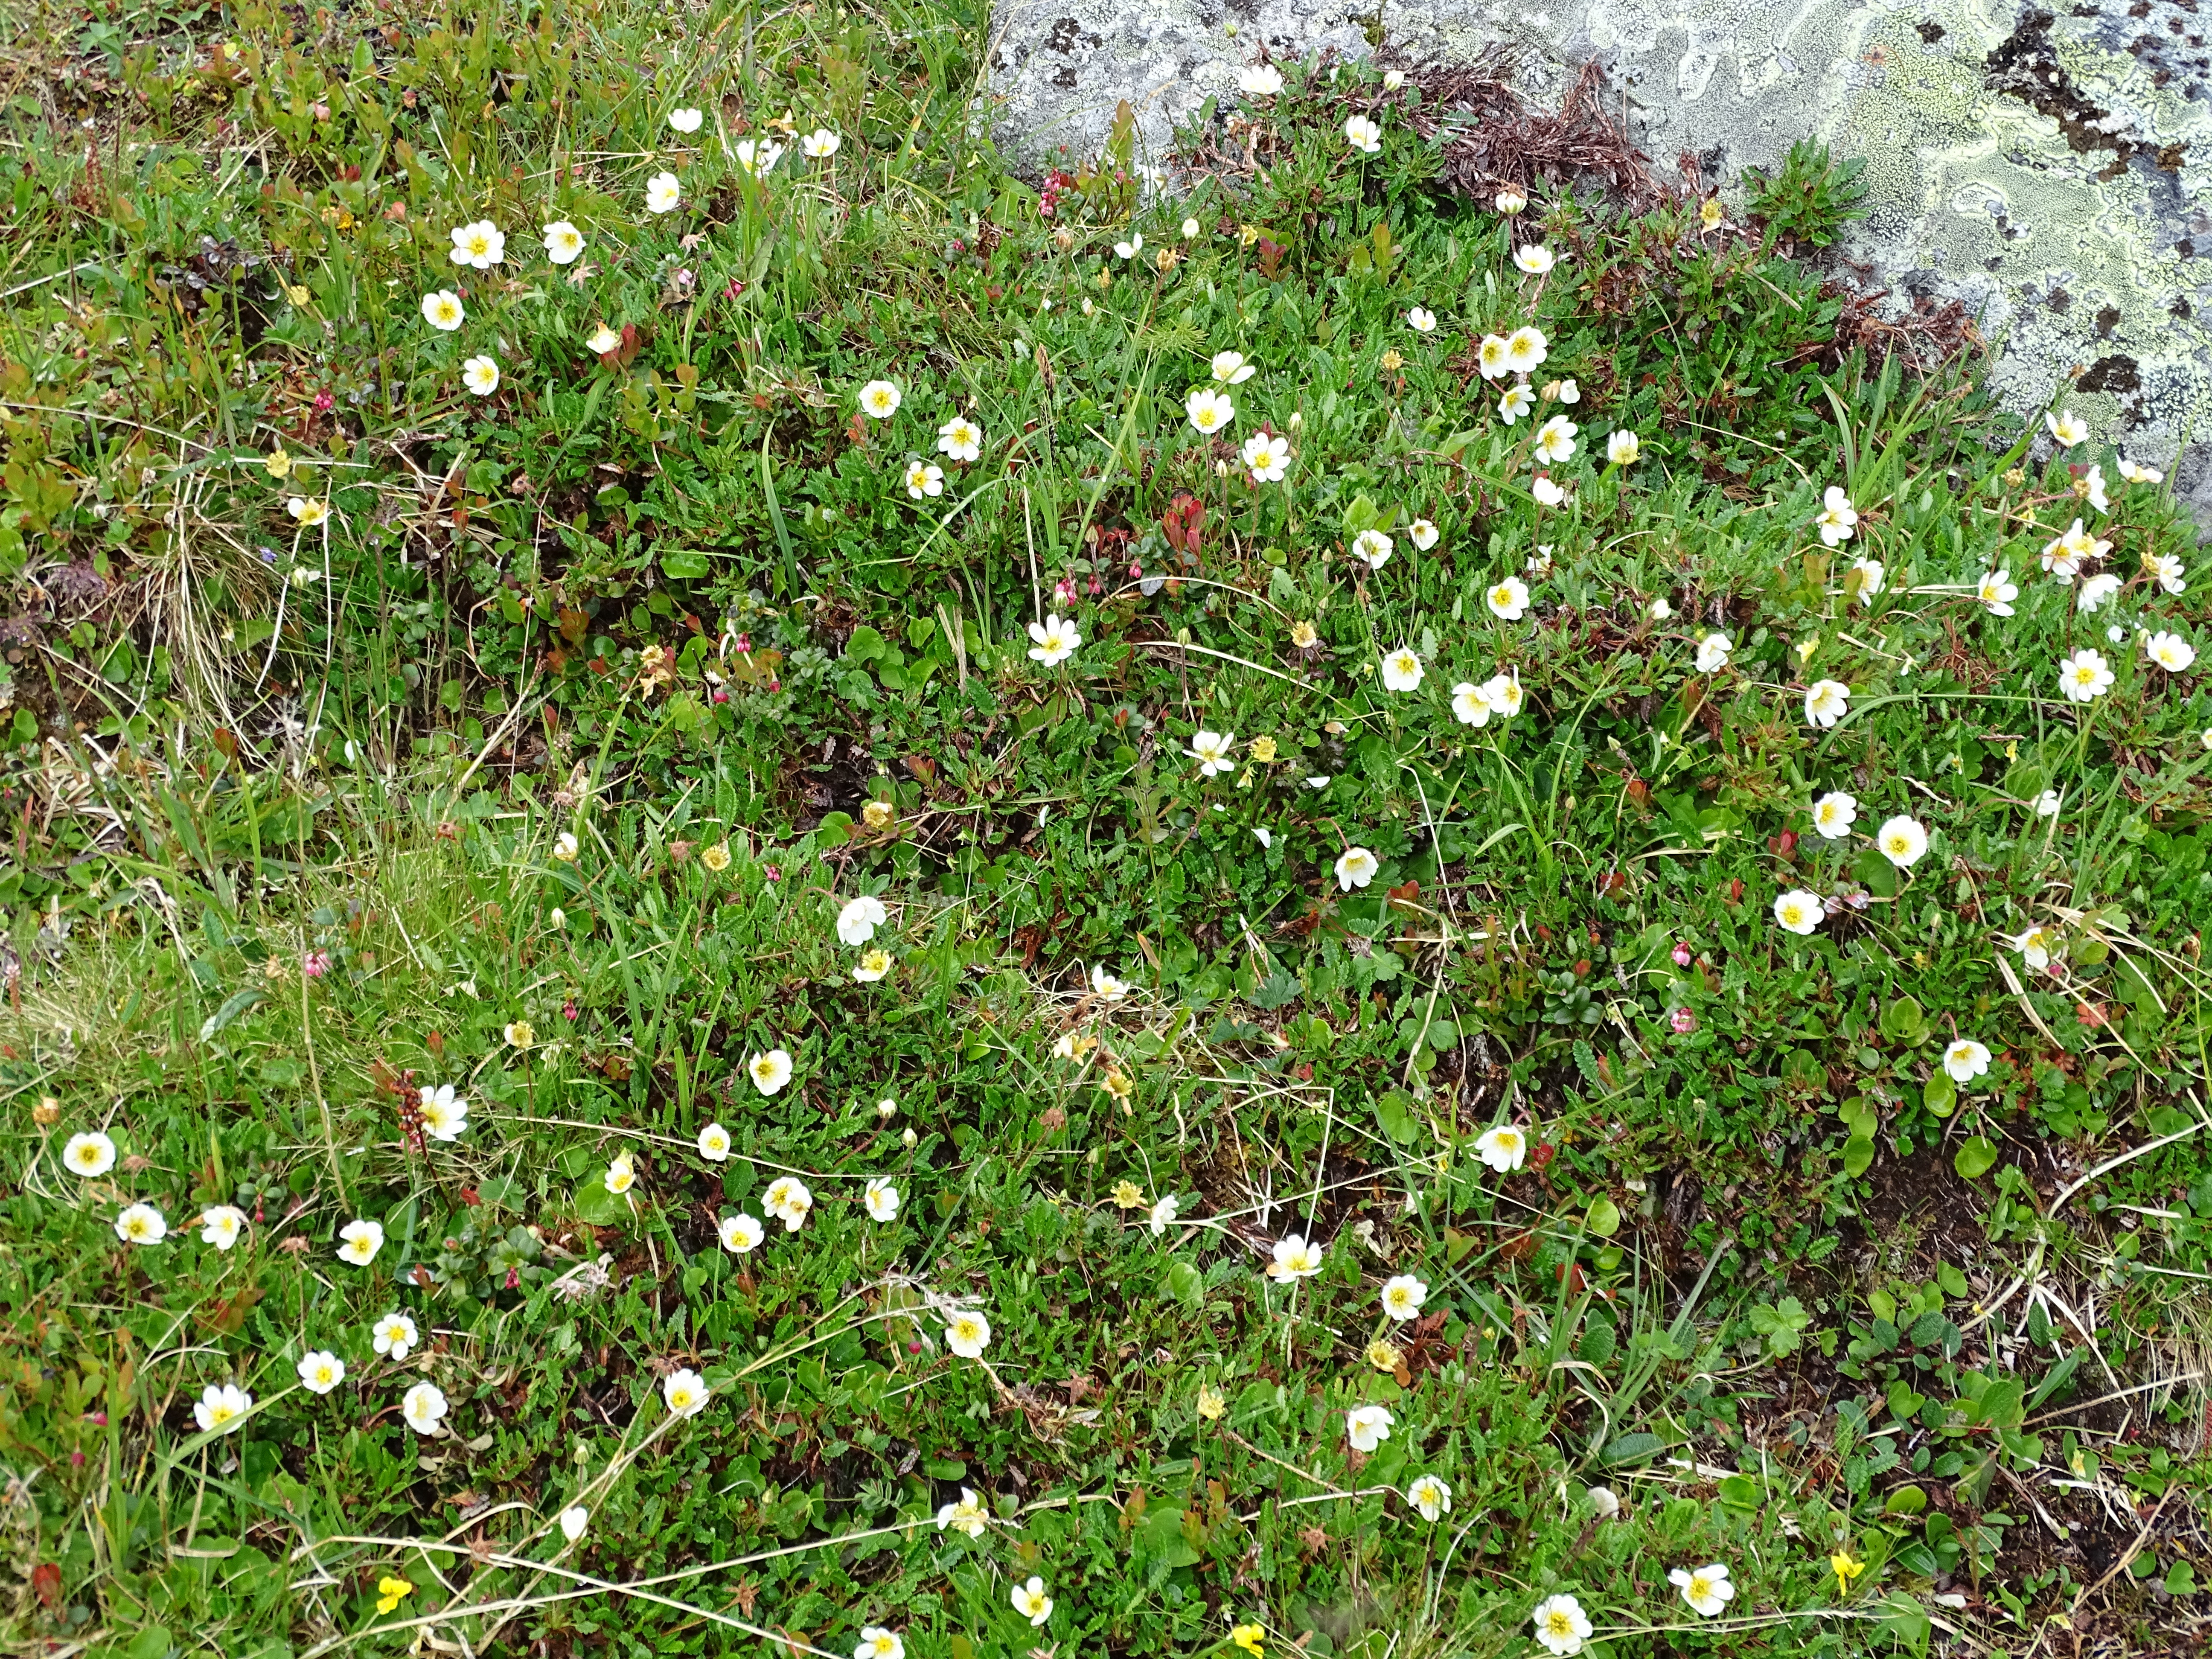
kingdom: Plantae
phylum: Tracheophyta
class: Magnoliopsida
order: Rosales
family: Rosaceae
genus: Dryas
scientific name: Dryas octopetala
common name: Eight-petal mountain-avens
